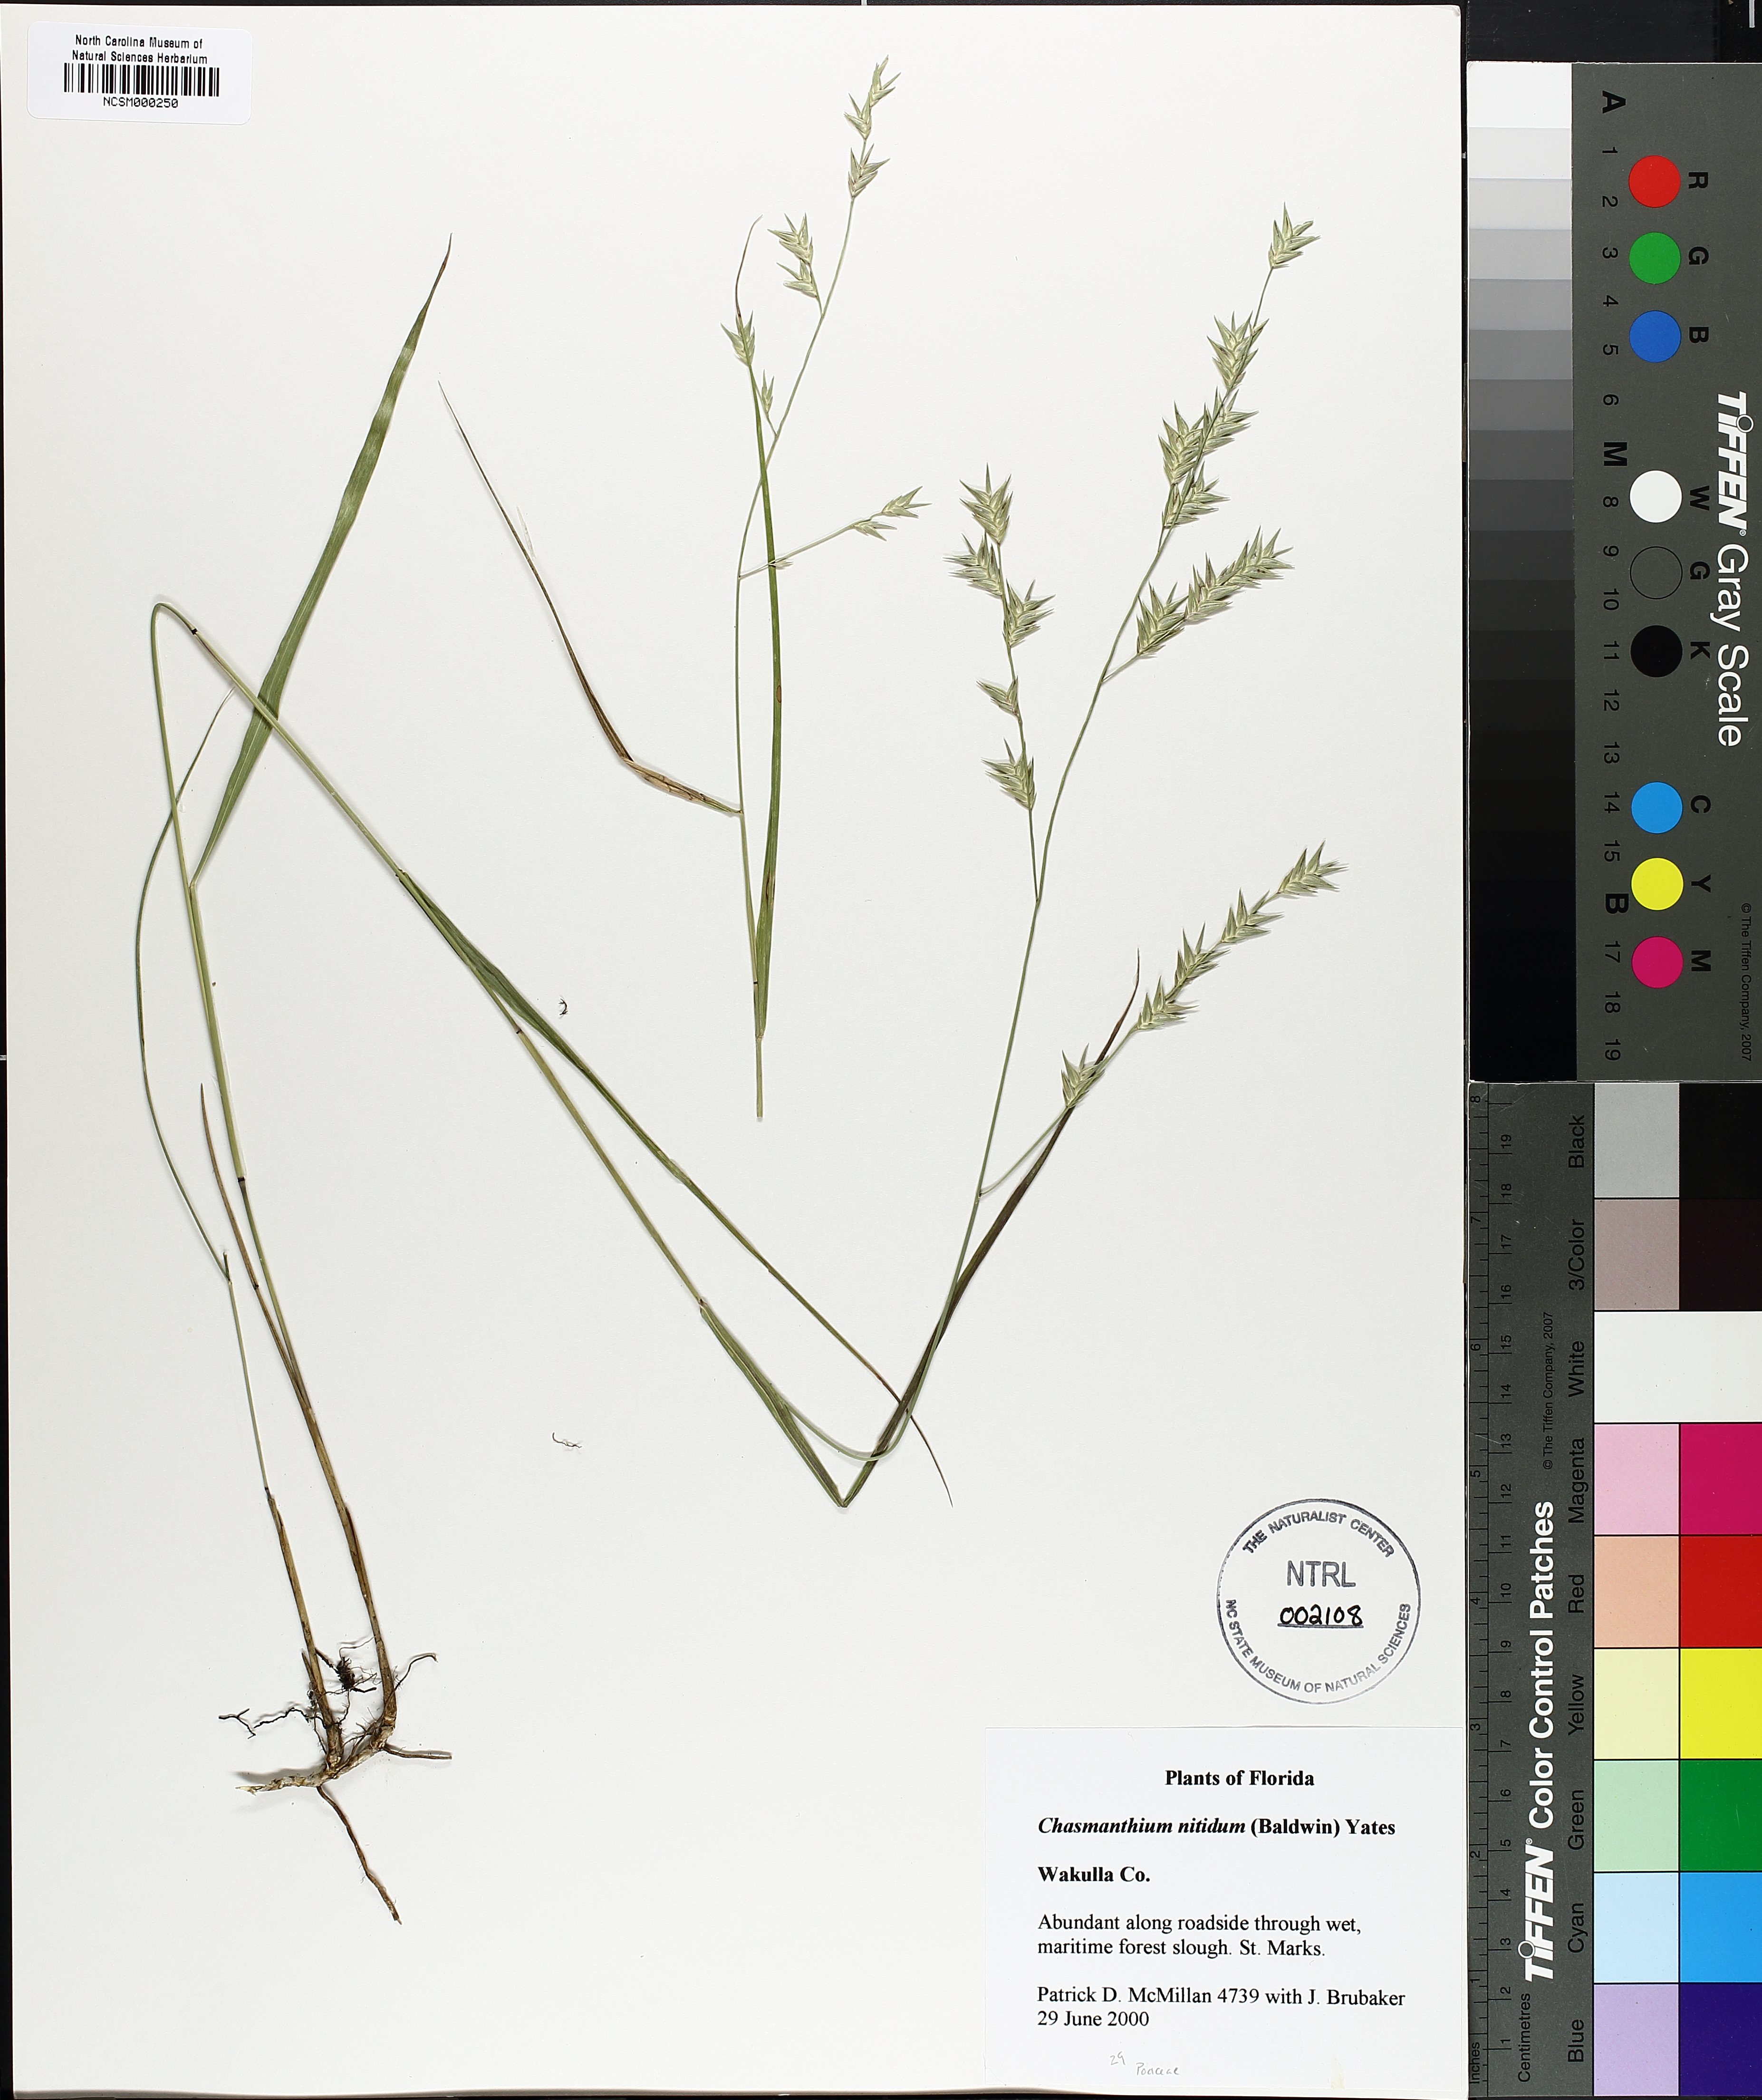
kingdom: Plantae
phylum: Tracheophyta
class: Liliopsida
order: Poales
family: Poaceae
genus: Chasmanthium
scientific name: Chasmanthium nitidum
